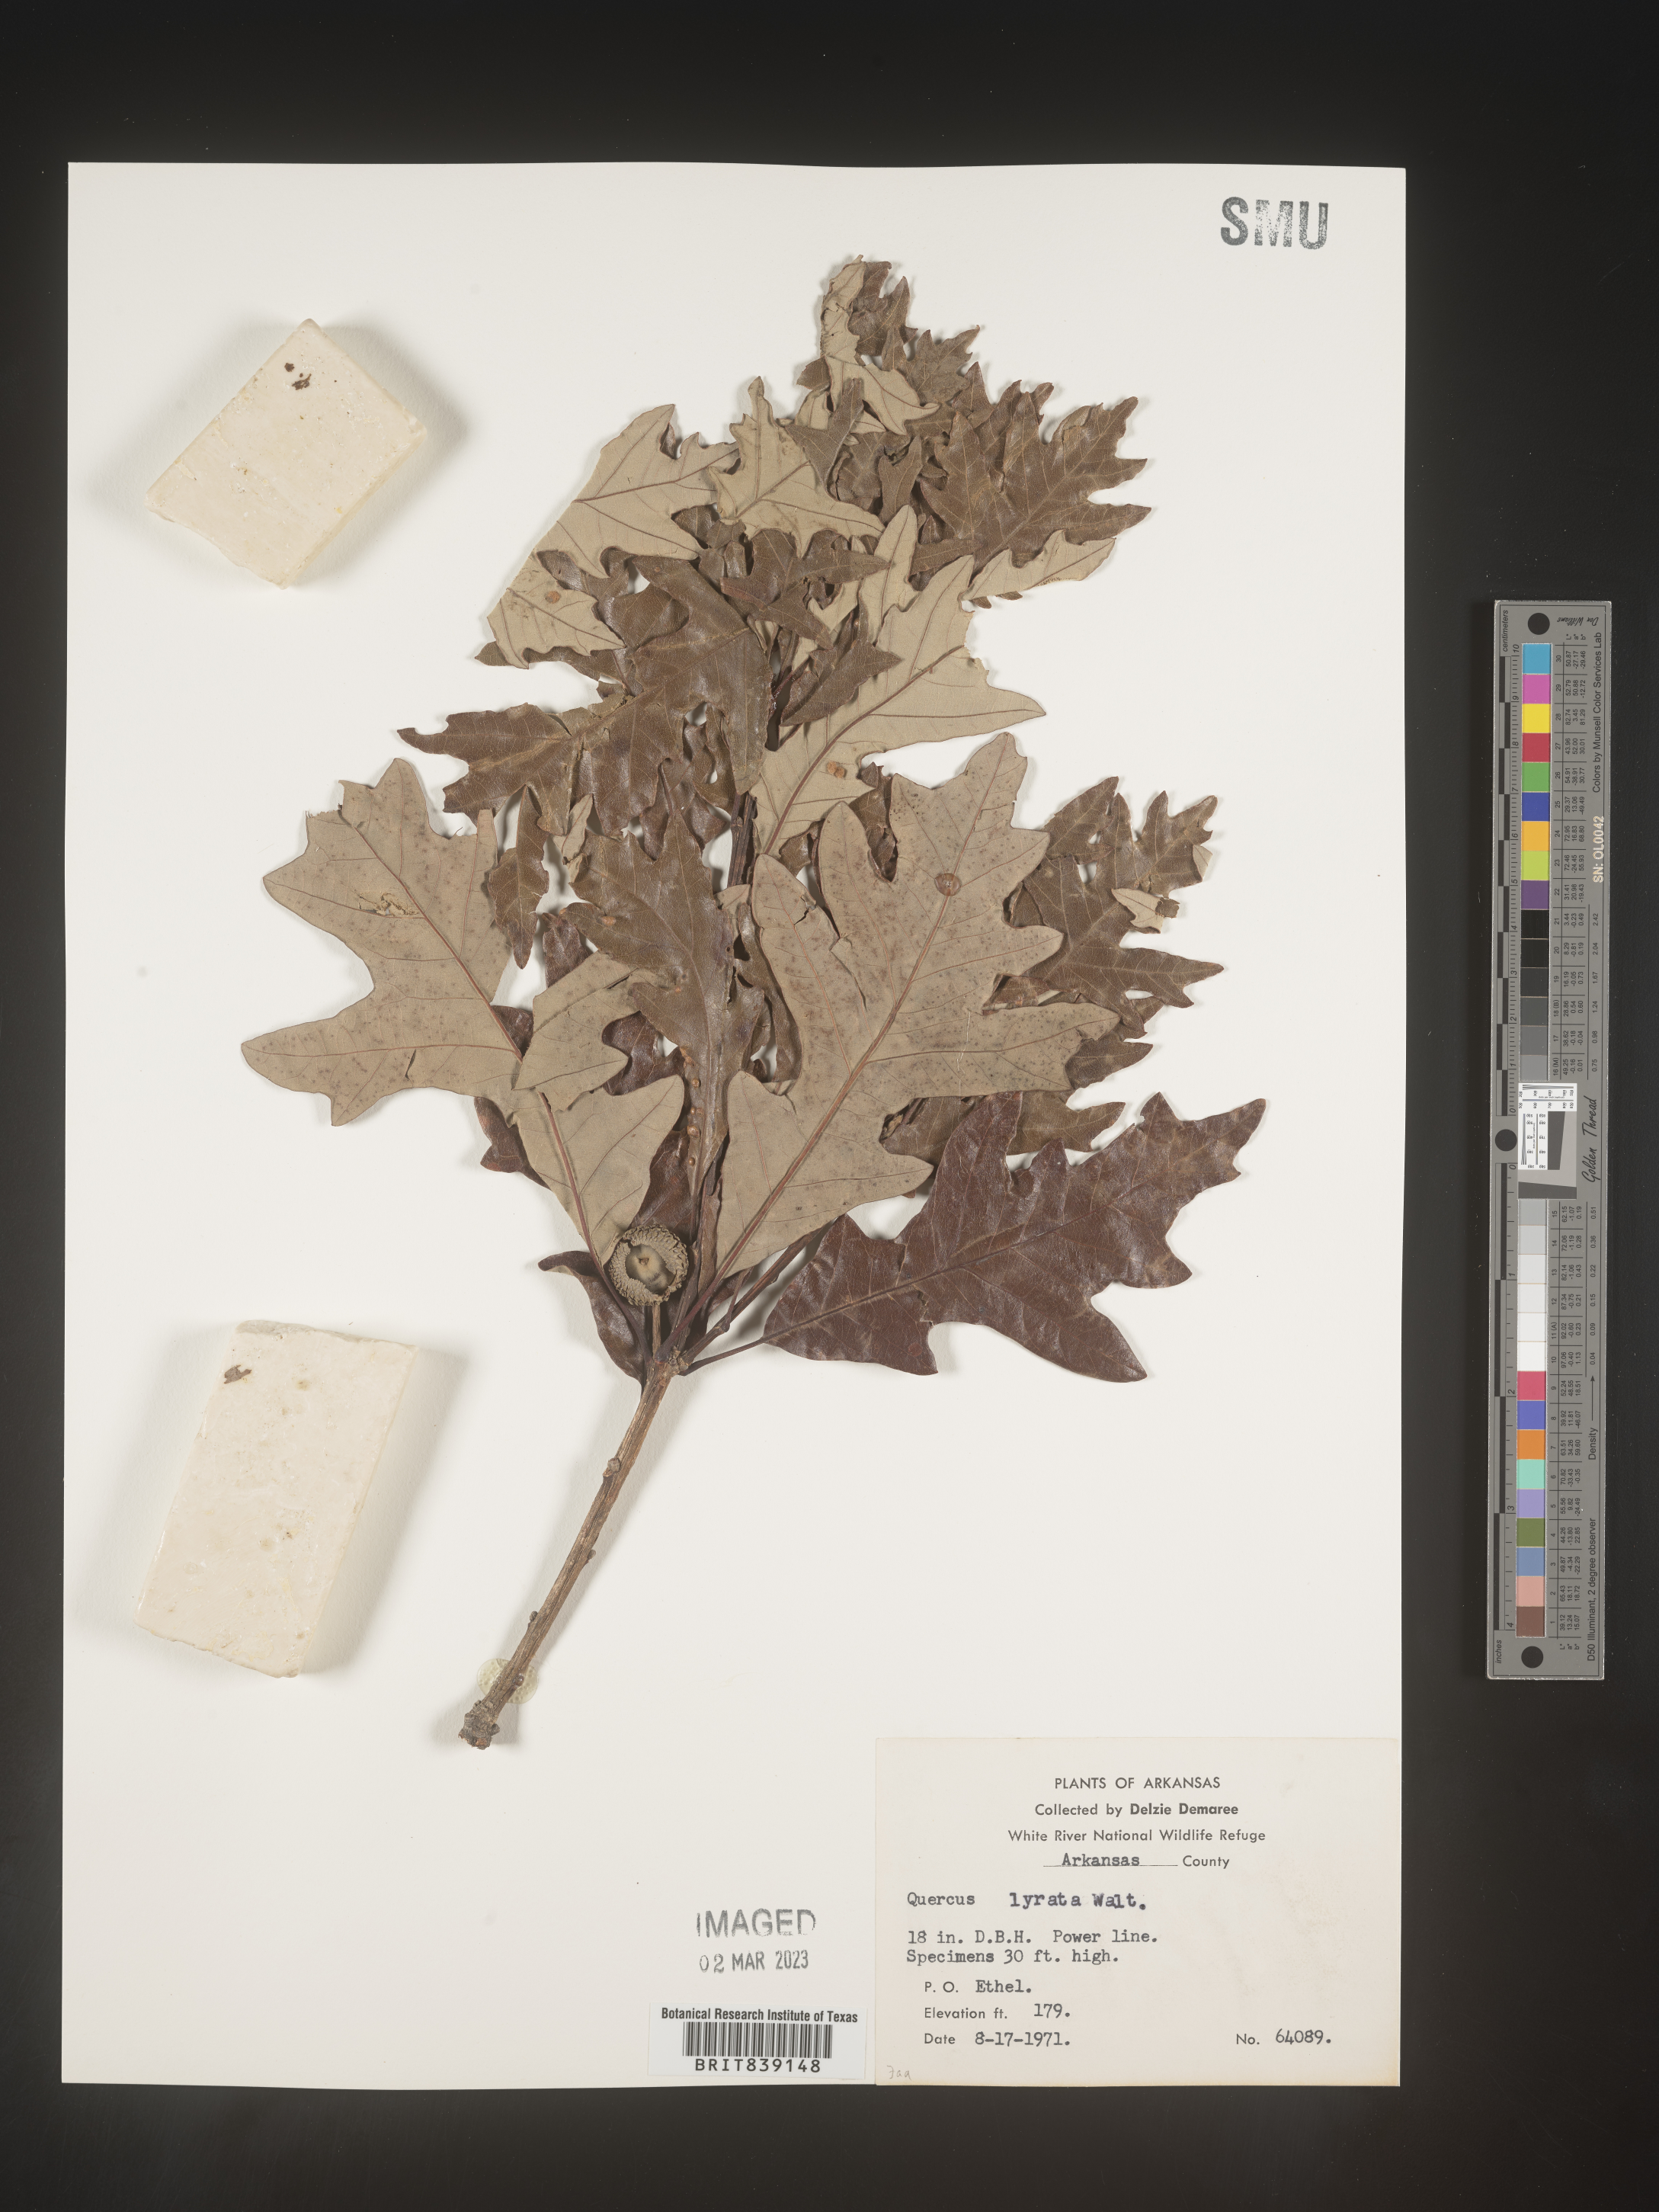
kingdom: Plantae
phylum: Tracheophyta
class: Magnoliopsida
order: Fagales
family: Fagaceae
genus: Quercus
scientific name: Quercus lyrata
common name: Overcup oak
